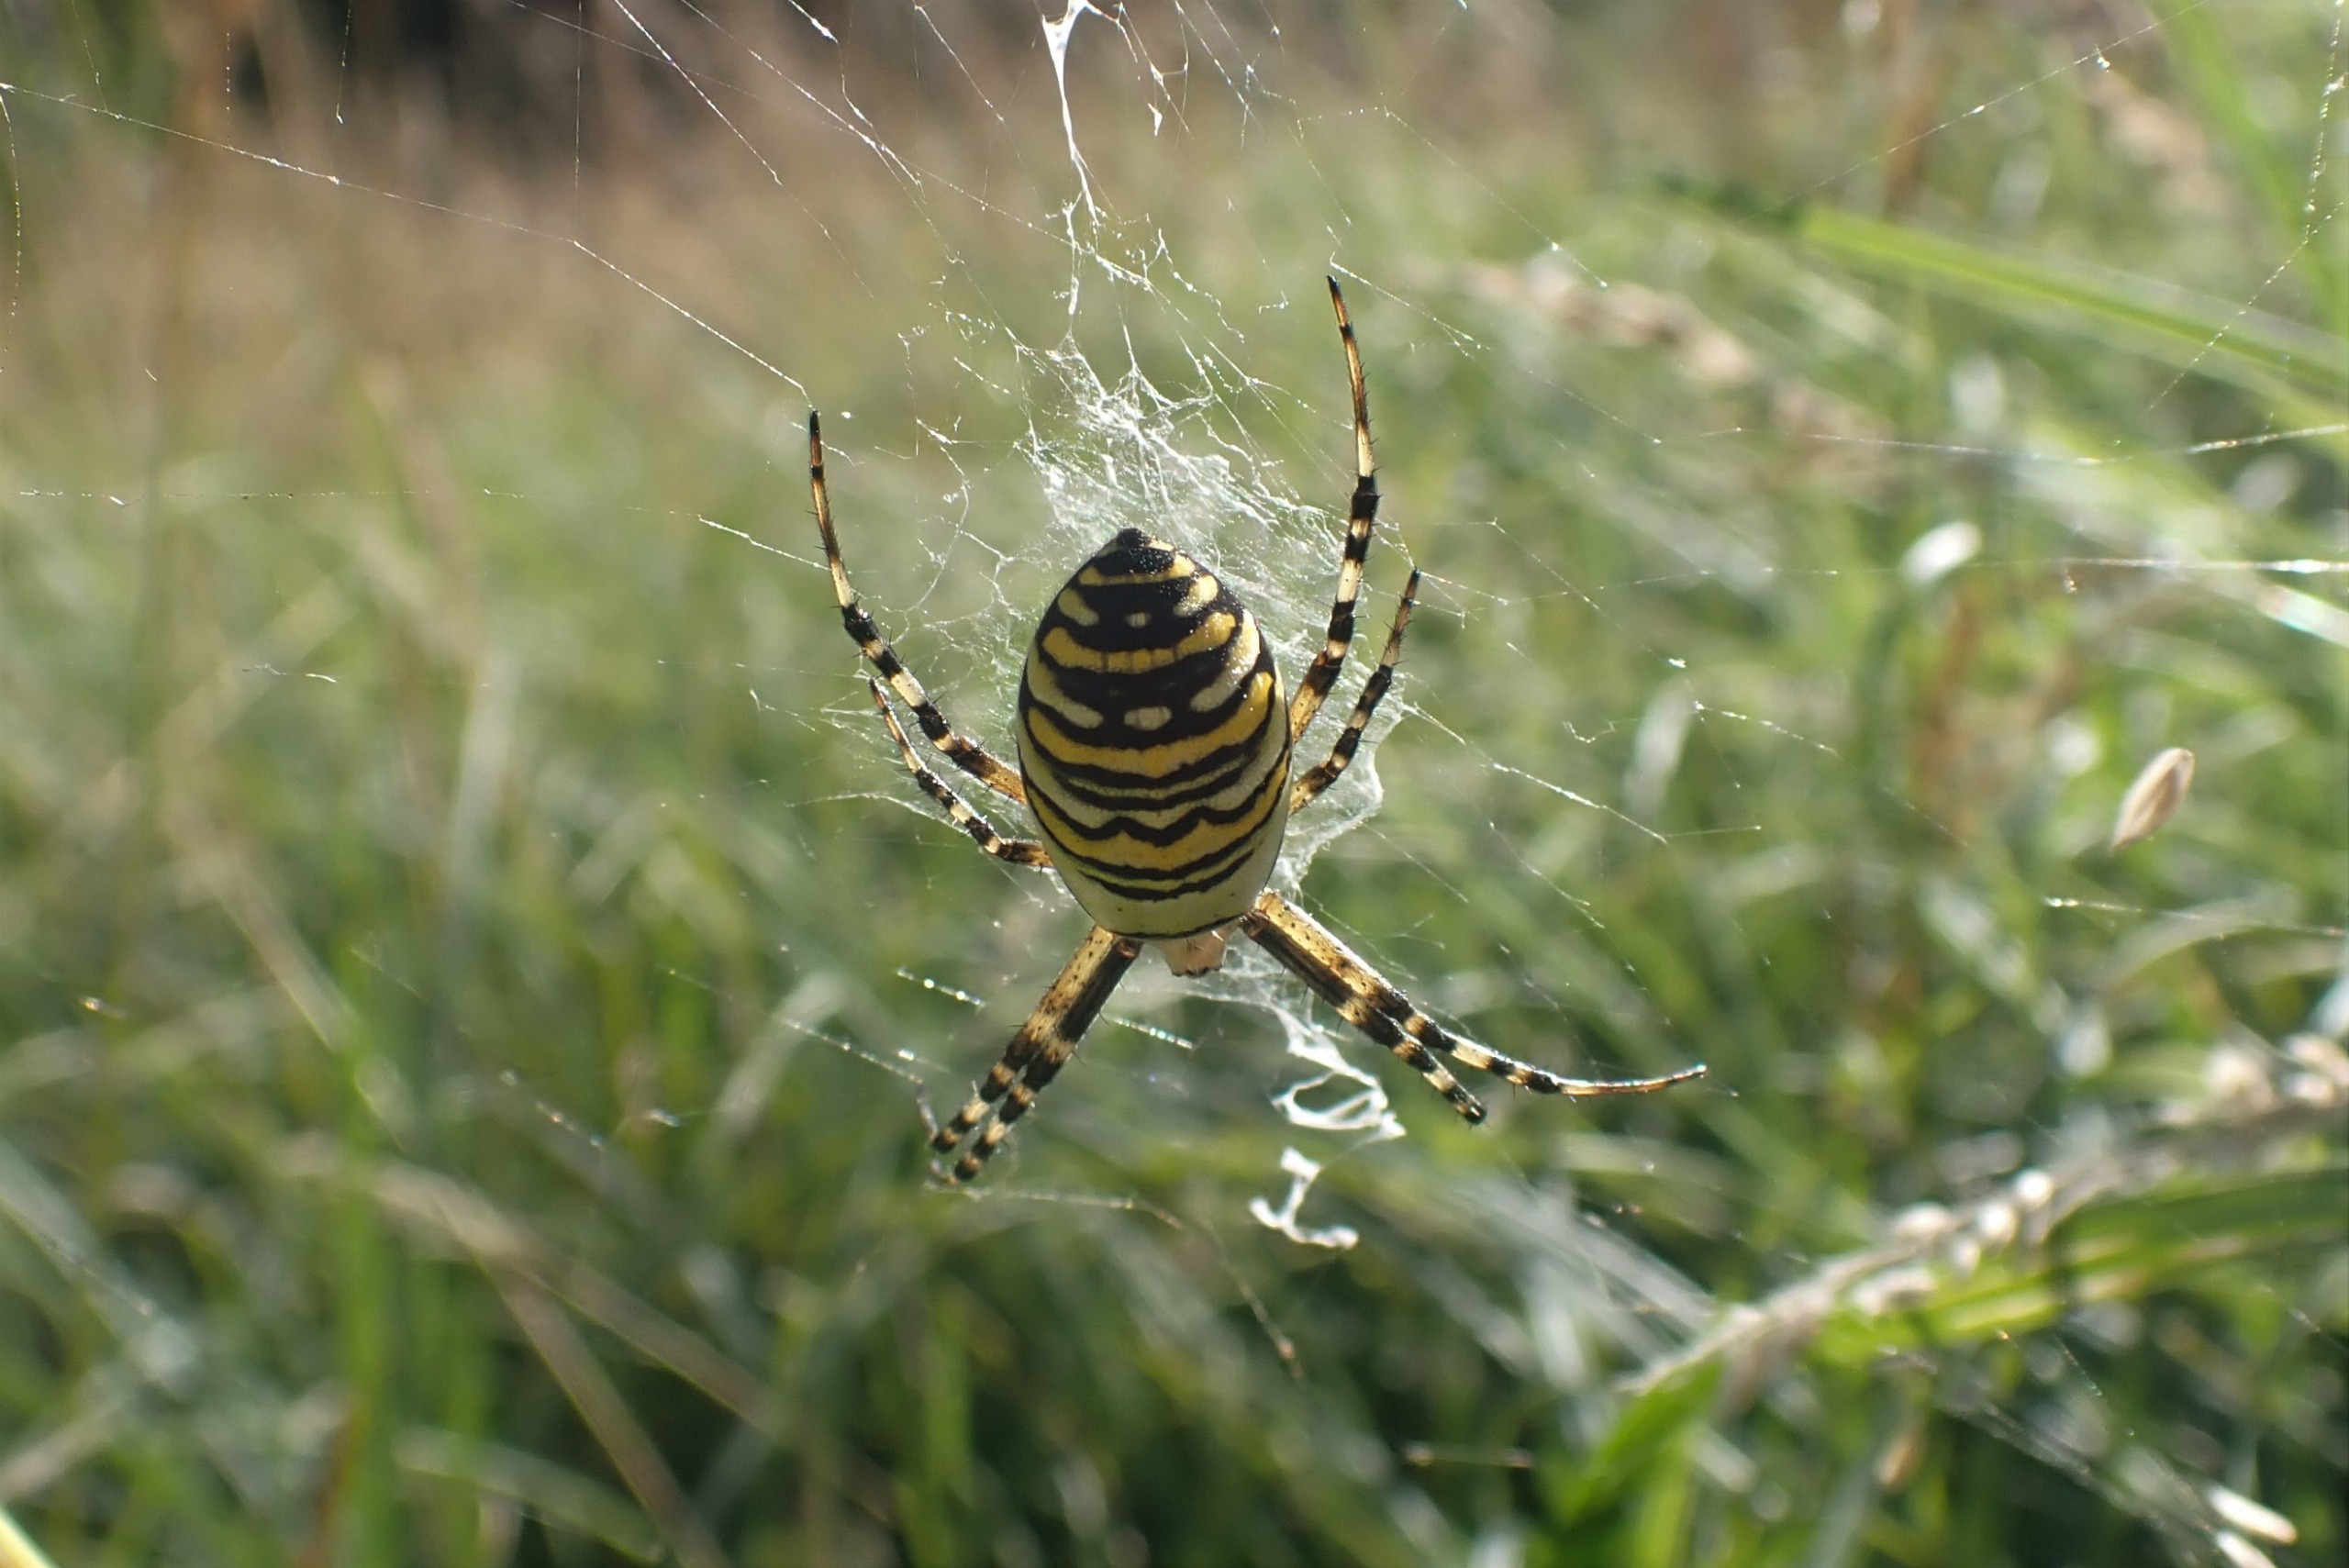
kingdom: Animalia
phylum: Arthropoda
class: Arachnida
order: Araneae
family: Araneidae
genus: Argiope
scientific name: Argiope bruennichi
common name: Hvepseedderkop
